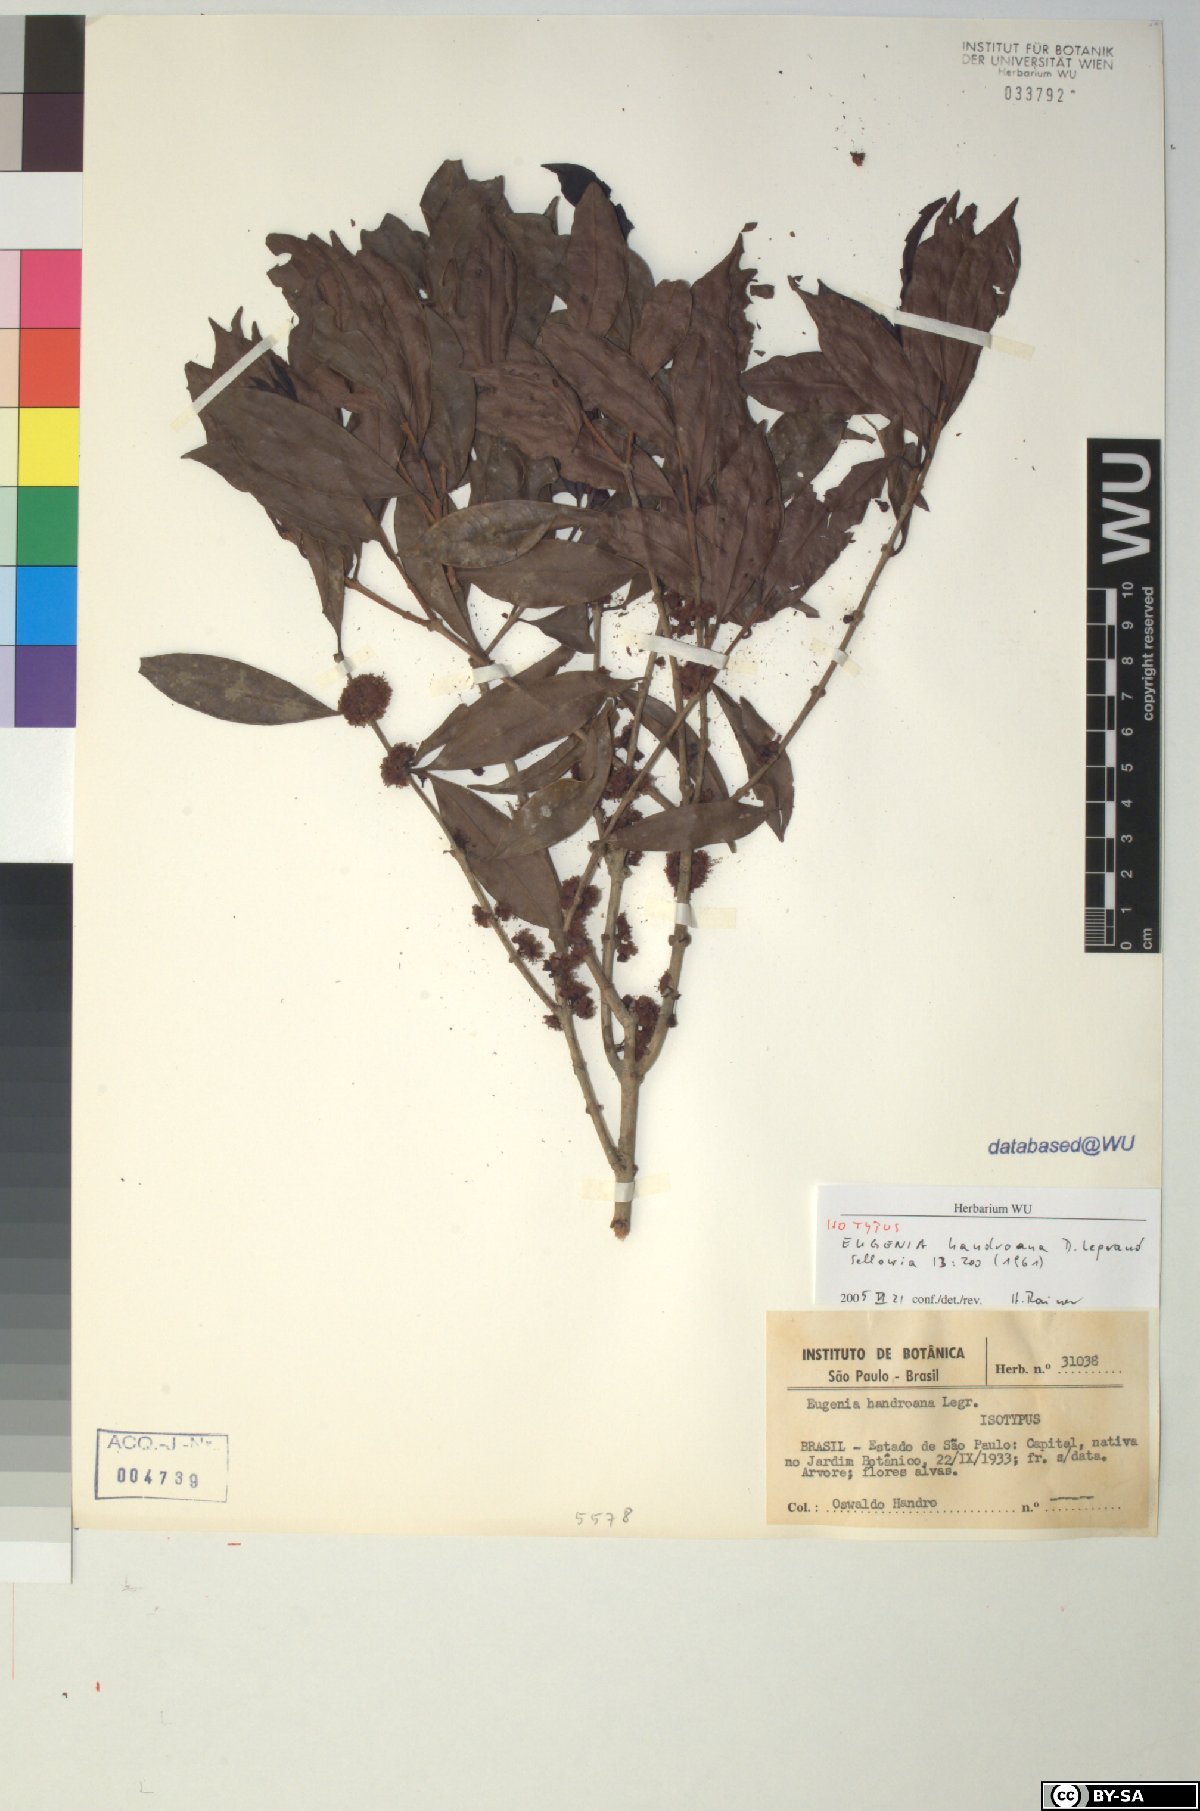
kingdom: Plantae
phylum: Tracheophyta
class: Magnoliopsida
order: Myrtales
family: Myrtaceae
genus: Eugenia
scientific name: Eugenia handroana
